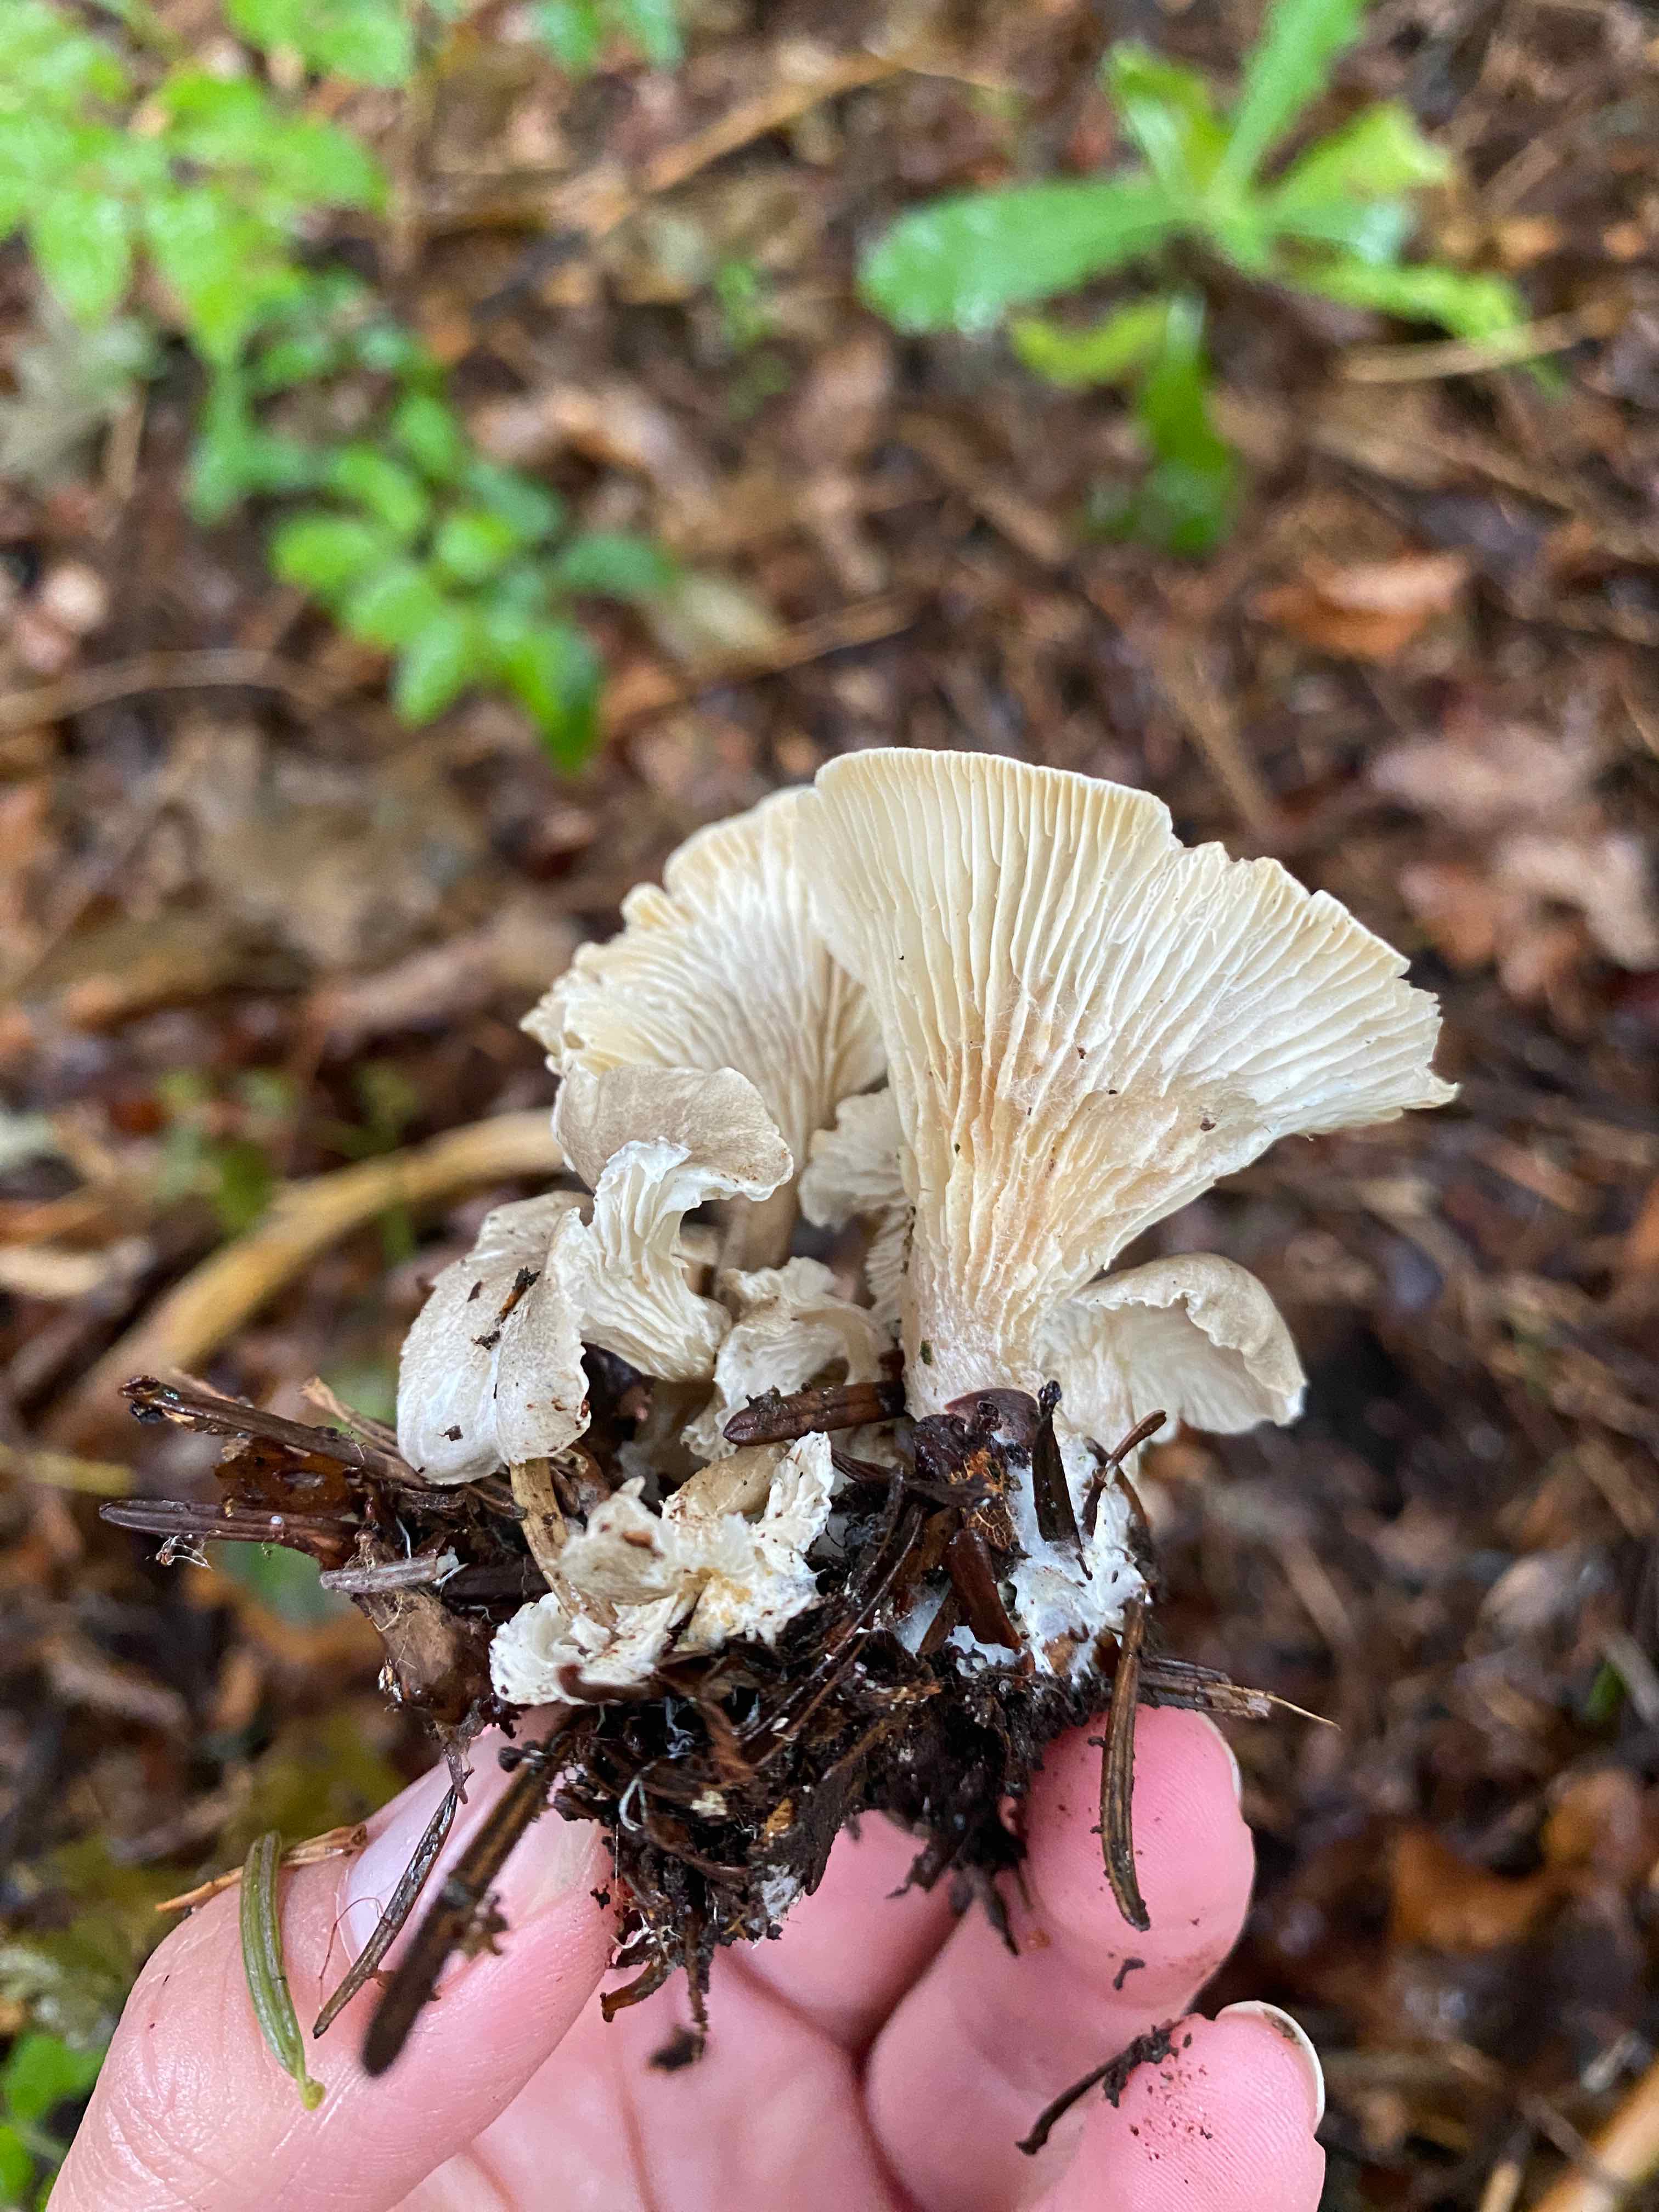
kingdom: Fungi
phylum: Basidiomycota
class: Agaricomycetes
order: Agaricales
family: Pseudoclitocybaceae
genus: Musumecia
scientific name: Musumecia
